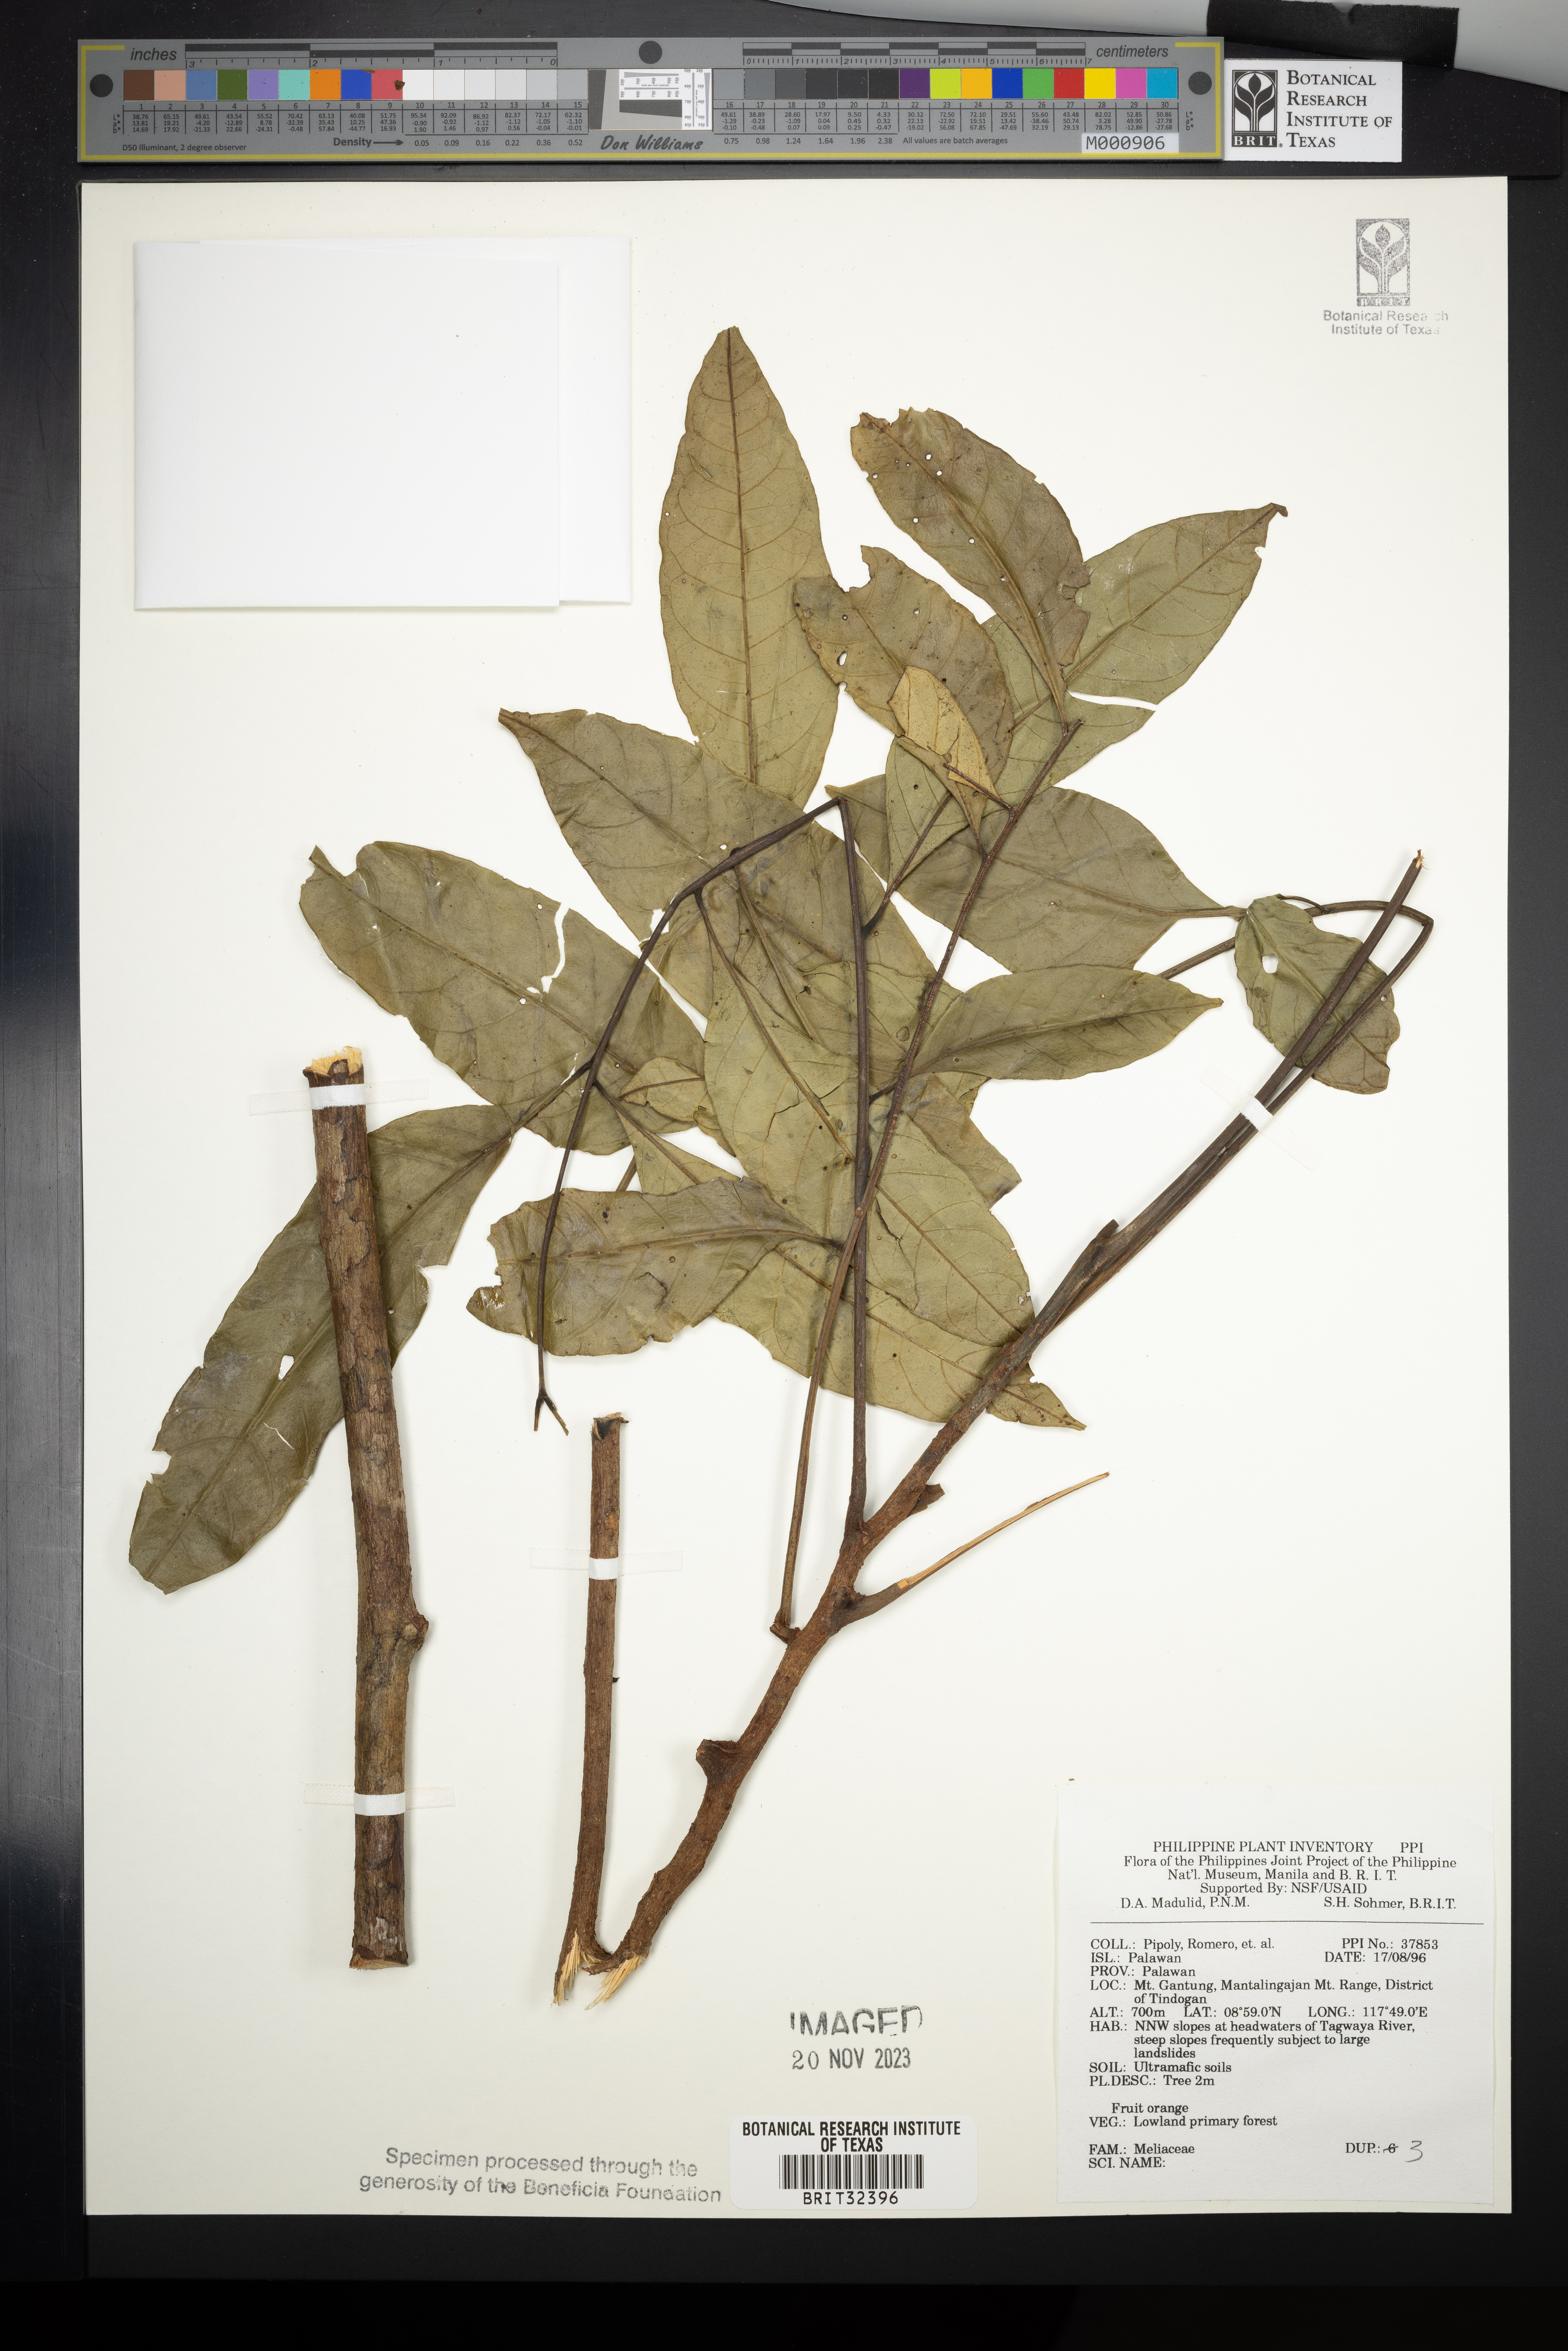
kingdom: Plantae
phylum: Tracheophyta
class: Magnoliopsida
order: Sapindales
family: Meliaceae
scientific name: Meliaceae
